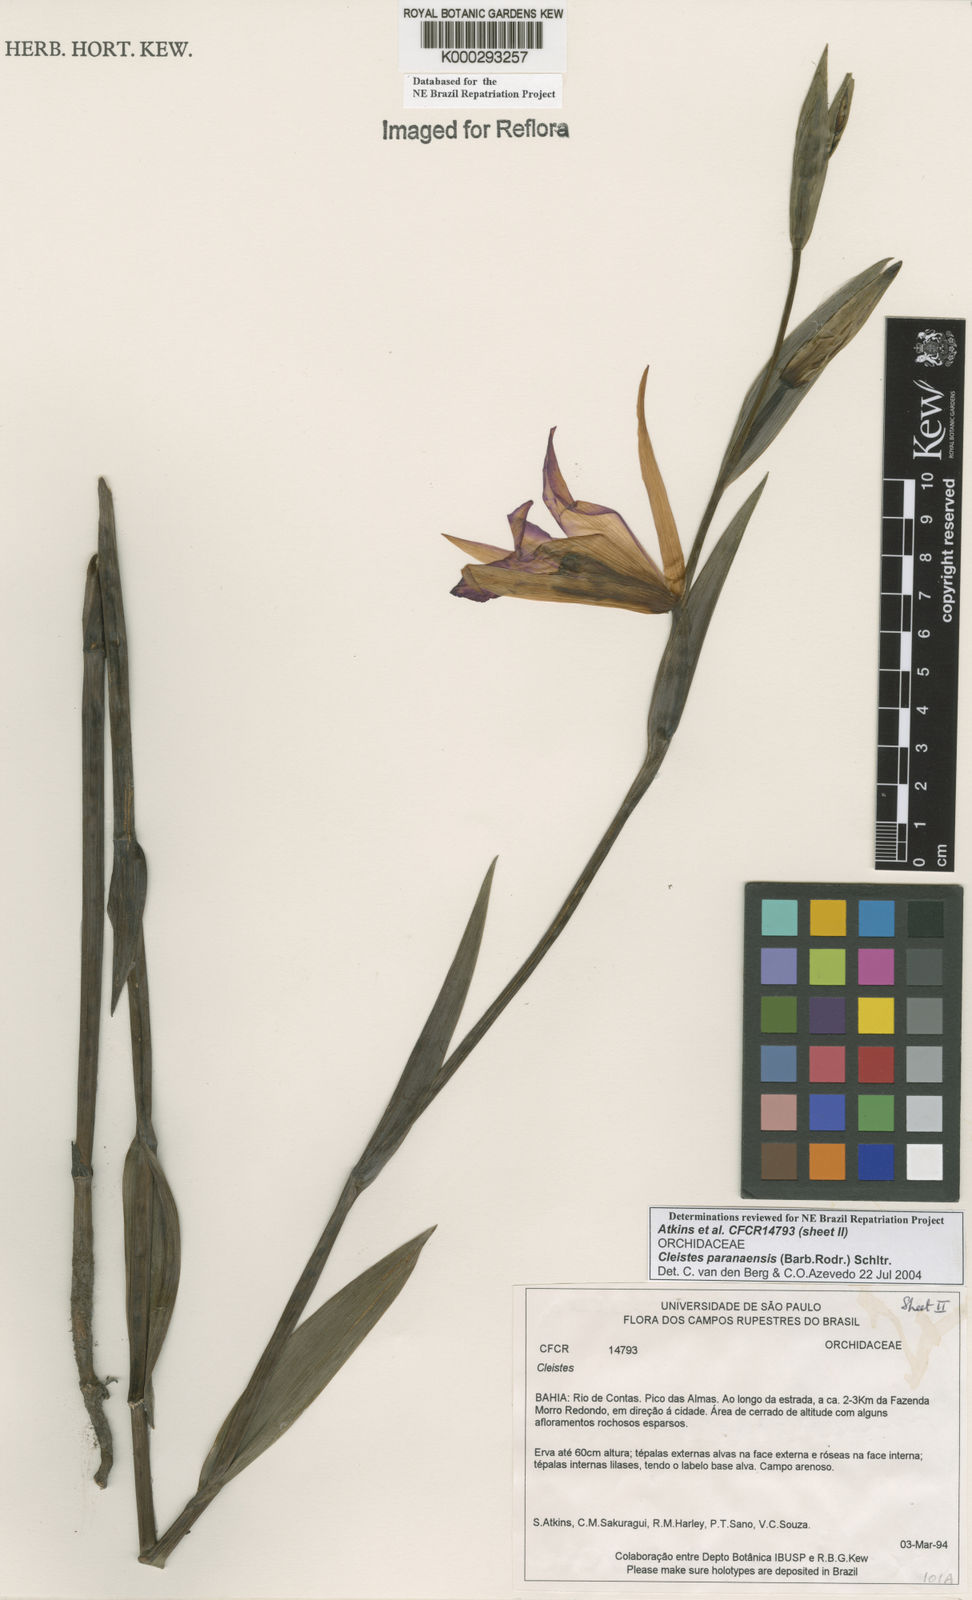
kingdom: Plantae
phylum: Tracheophyta
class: Liliopsida
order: Asparagales
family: Orchidaceae
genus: Cleistes
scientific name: Cleistes paranaensis
